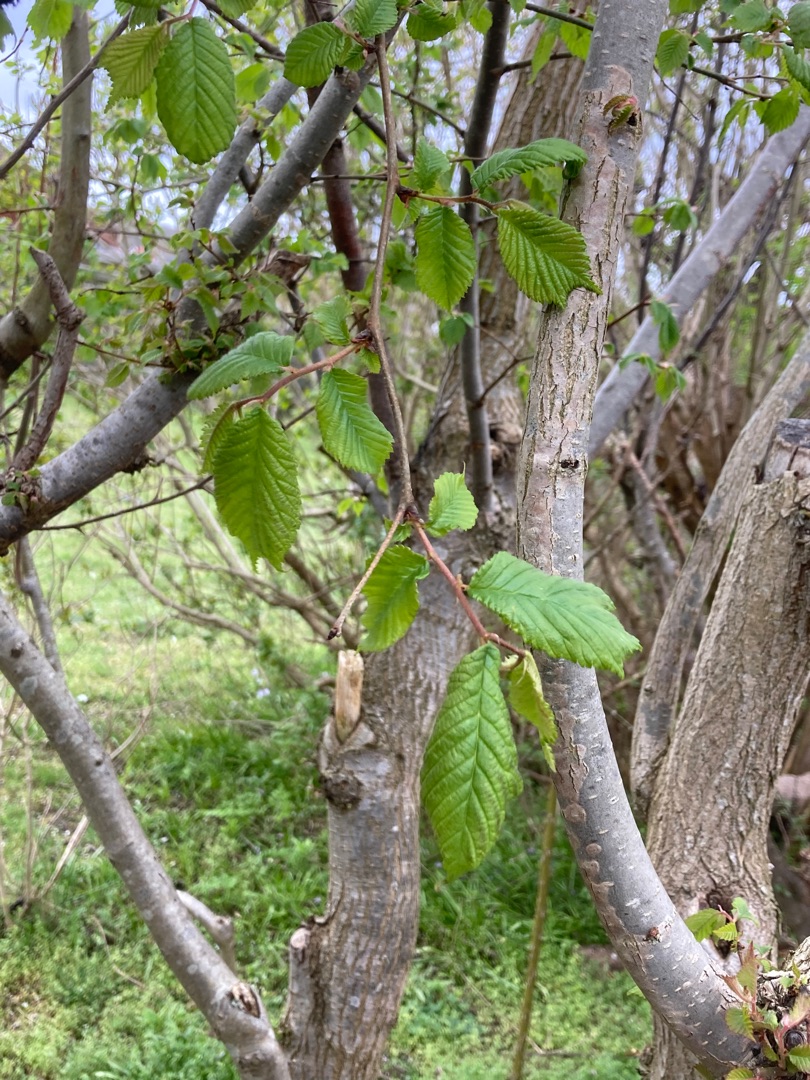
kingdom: Plantae
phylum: Tracheophyta
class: Magnoliopsida
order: Rosales
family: Ulmaceae
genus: Ulmus
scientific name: Ulmus glabra
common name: Skov-elm/storbladet elm
